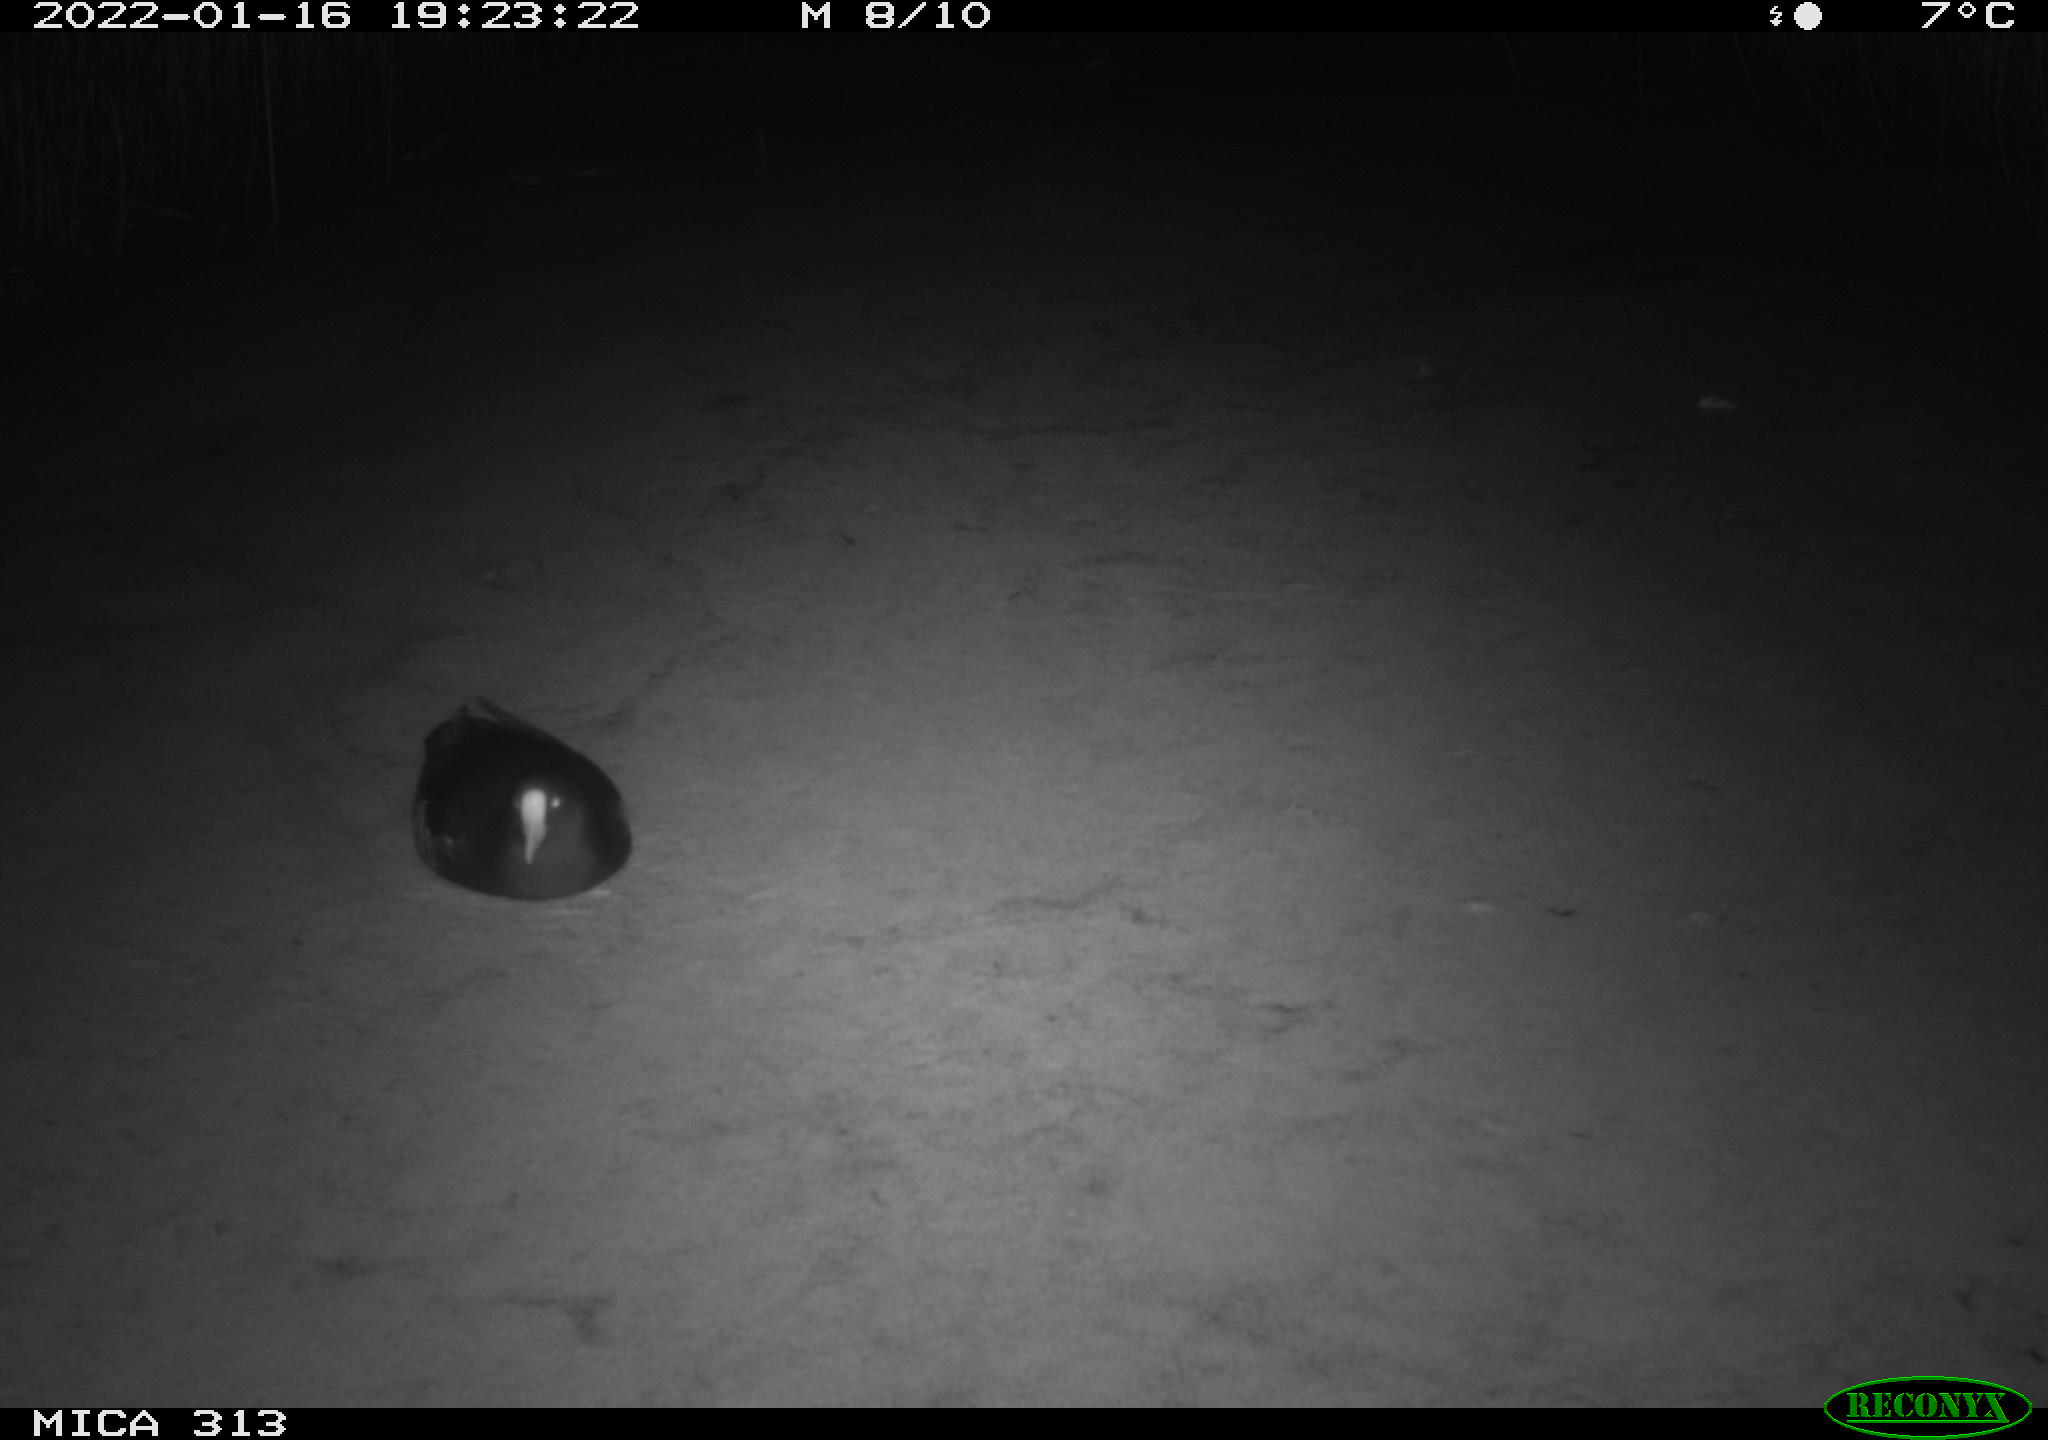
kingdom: Animalia
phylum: Chordata
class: Aves
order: Gruiformes
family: Rallidae
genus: Gallinula
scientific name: Gallinula chloropus
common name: Common moorhen
